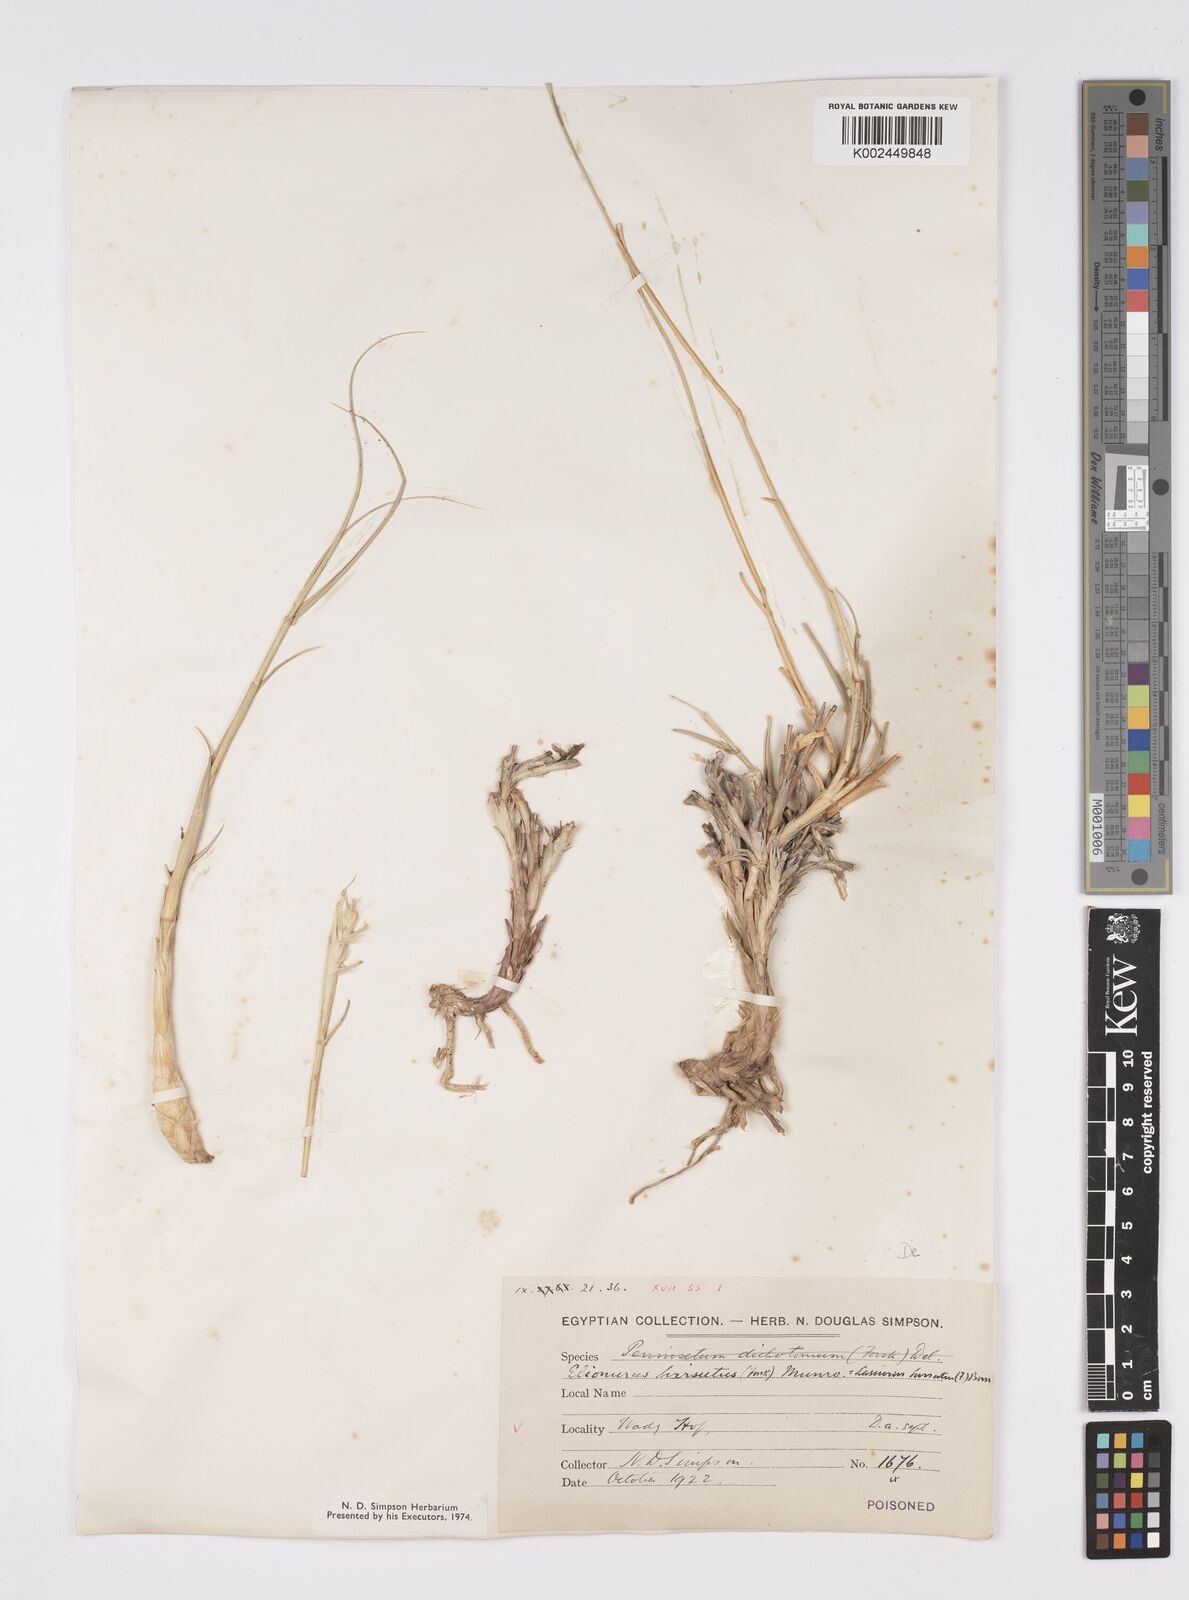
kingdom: Plantae
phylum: Tracheophyta
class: Liliopsida
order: Poales
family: Poaceae
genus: Lasiurus
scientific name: Lasiurus scindicus
